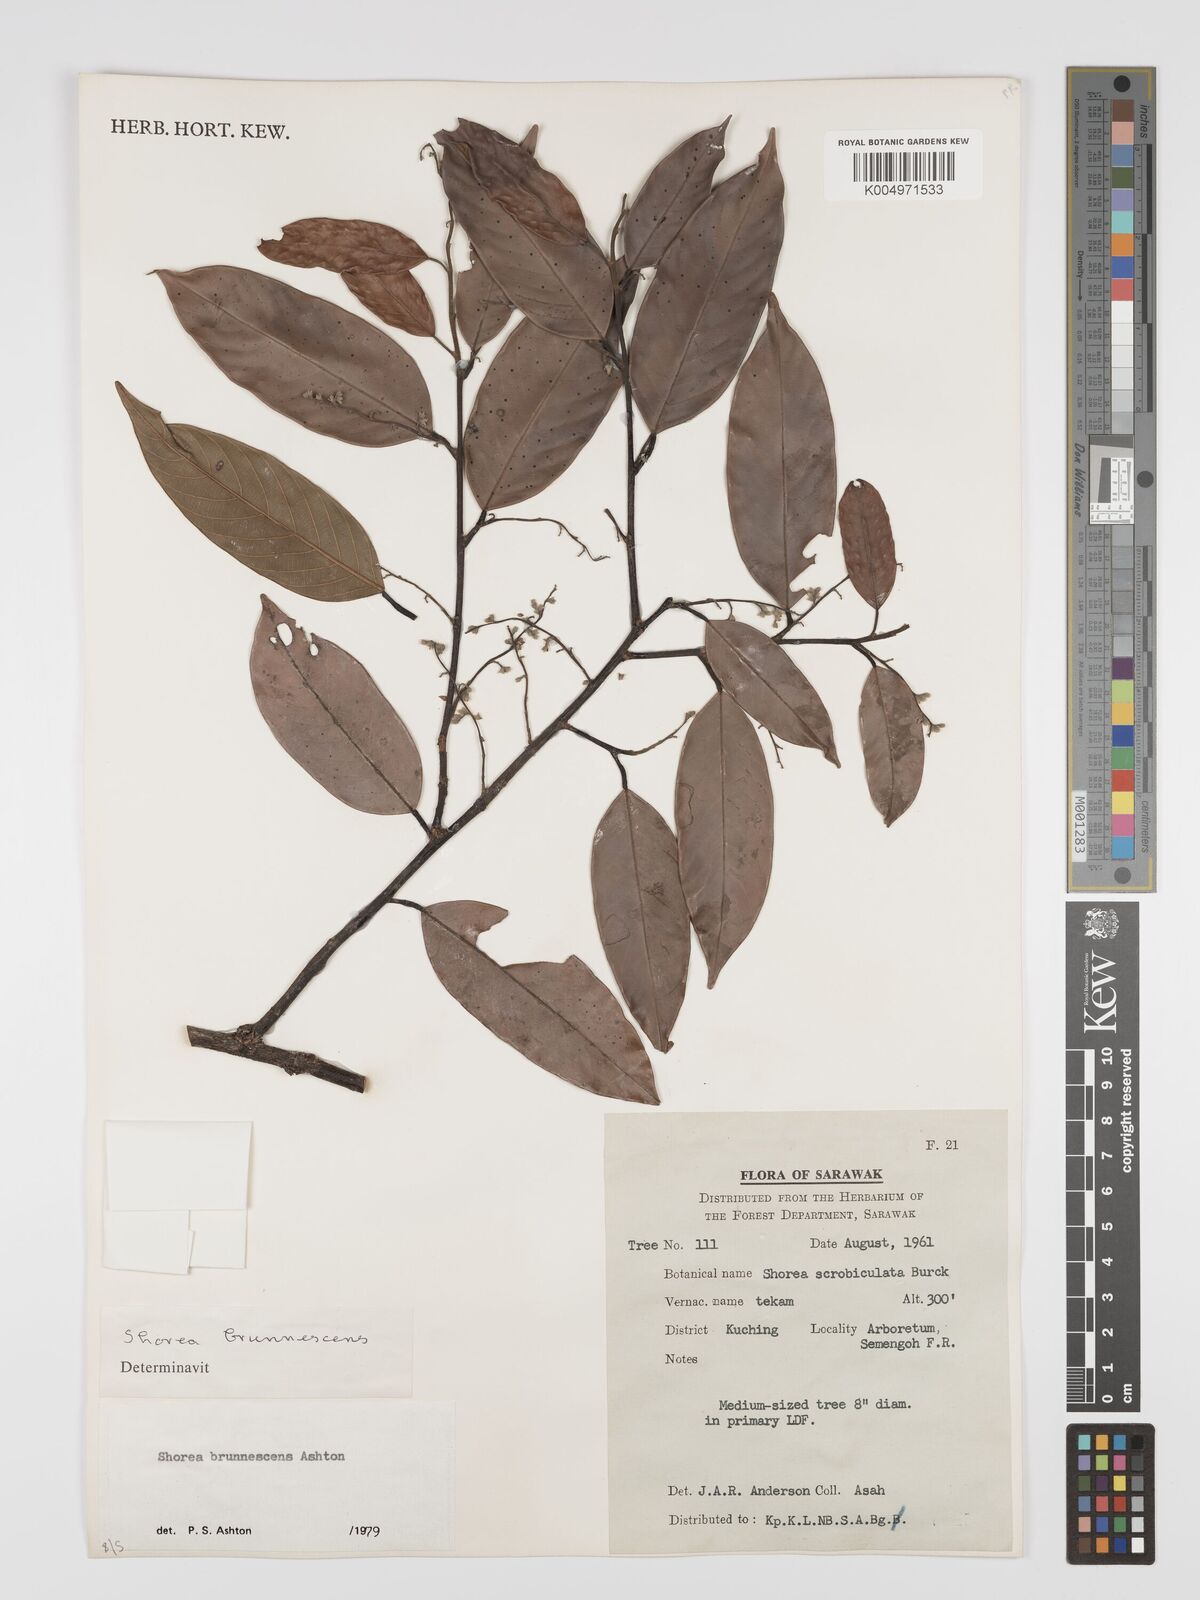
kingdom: Plantae
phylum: Tracheophyta
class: Magnoliopsida
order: Malvales
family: Dipterocarpaceae
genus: Shorea
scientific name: Shorea brunnescens
